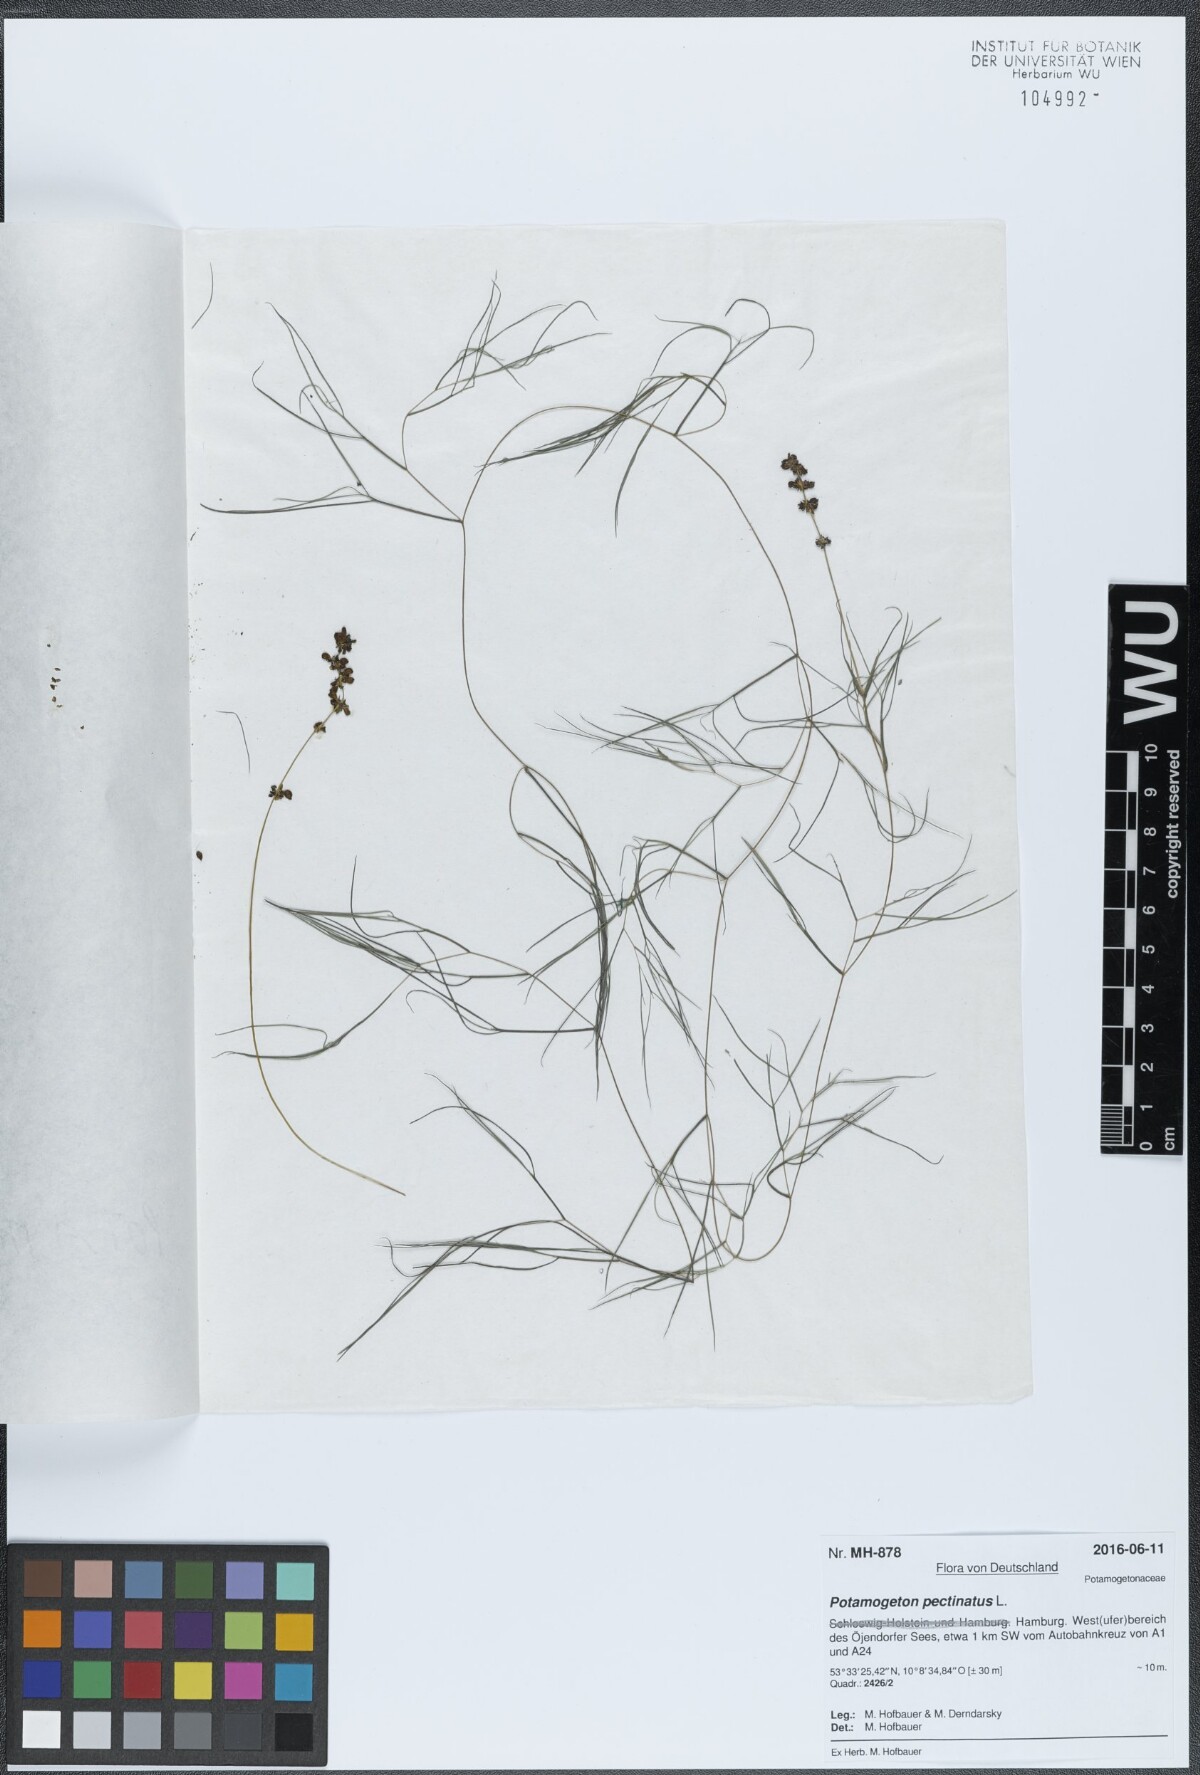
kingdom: Plantae
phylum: Tracheophyta
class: Liliopsida
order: Alismatales
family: Potamogetonaceae
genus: Stuckenia
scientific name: Stuckenia pectinata
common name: Sago pondweed
